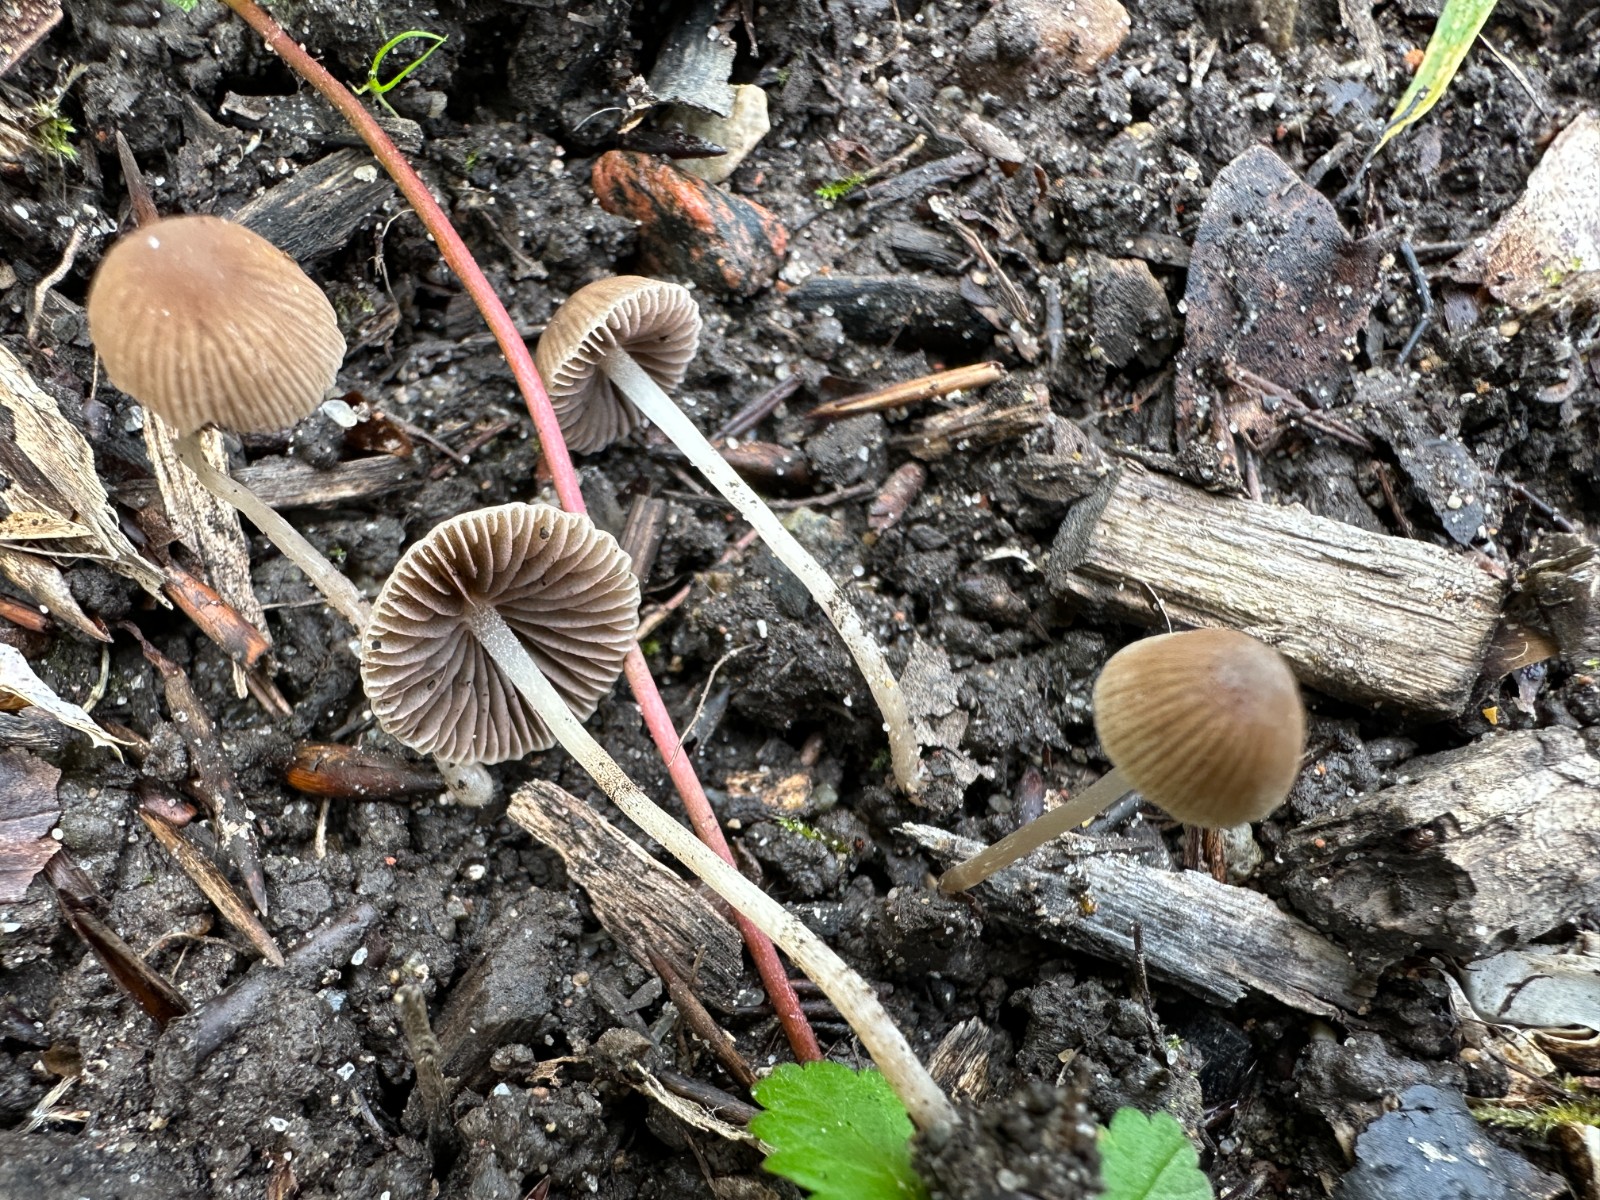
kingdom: Fungi
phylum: Basidiomycota
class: Agaricomycetes
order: Agaricales
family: Psathyrellaceae
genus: Psathyrella
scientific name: Psathyrella orbitarum
